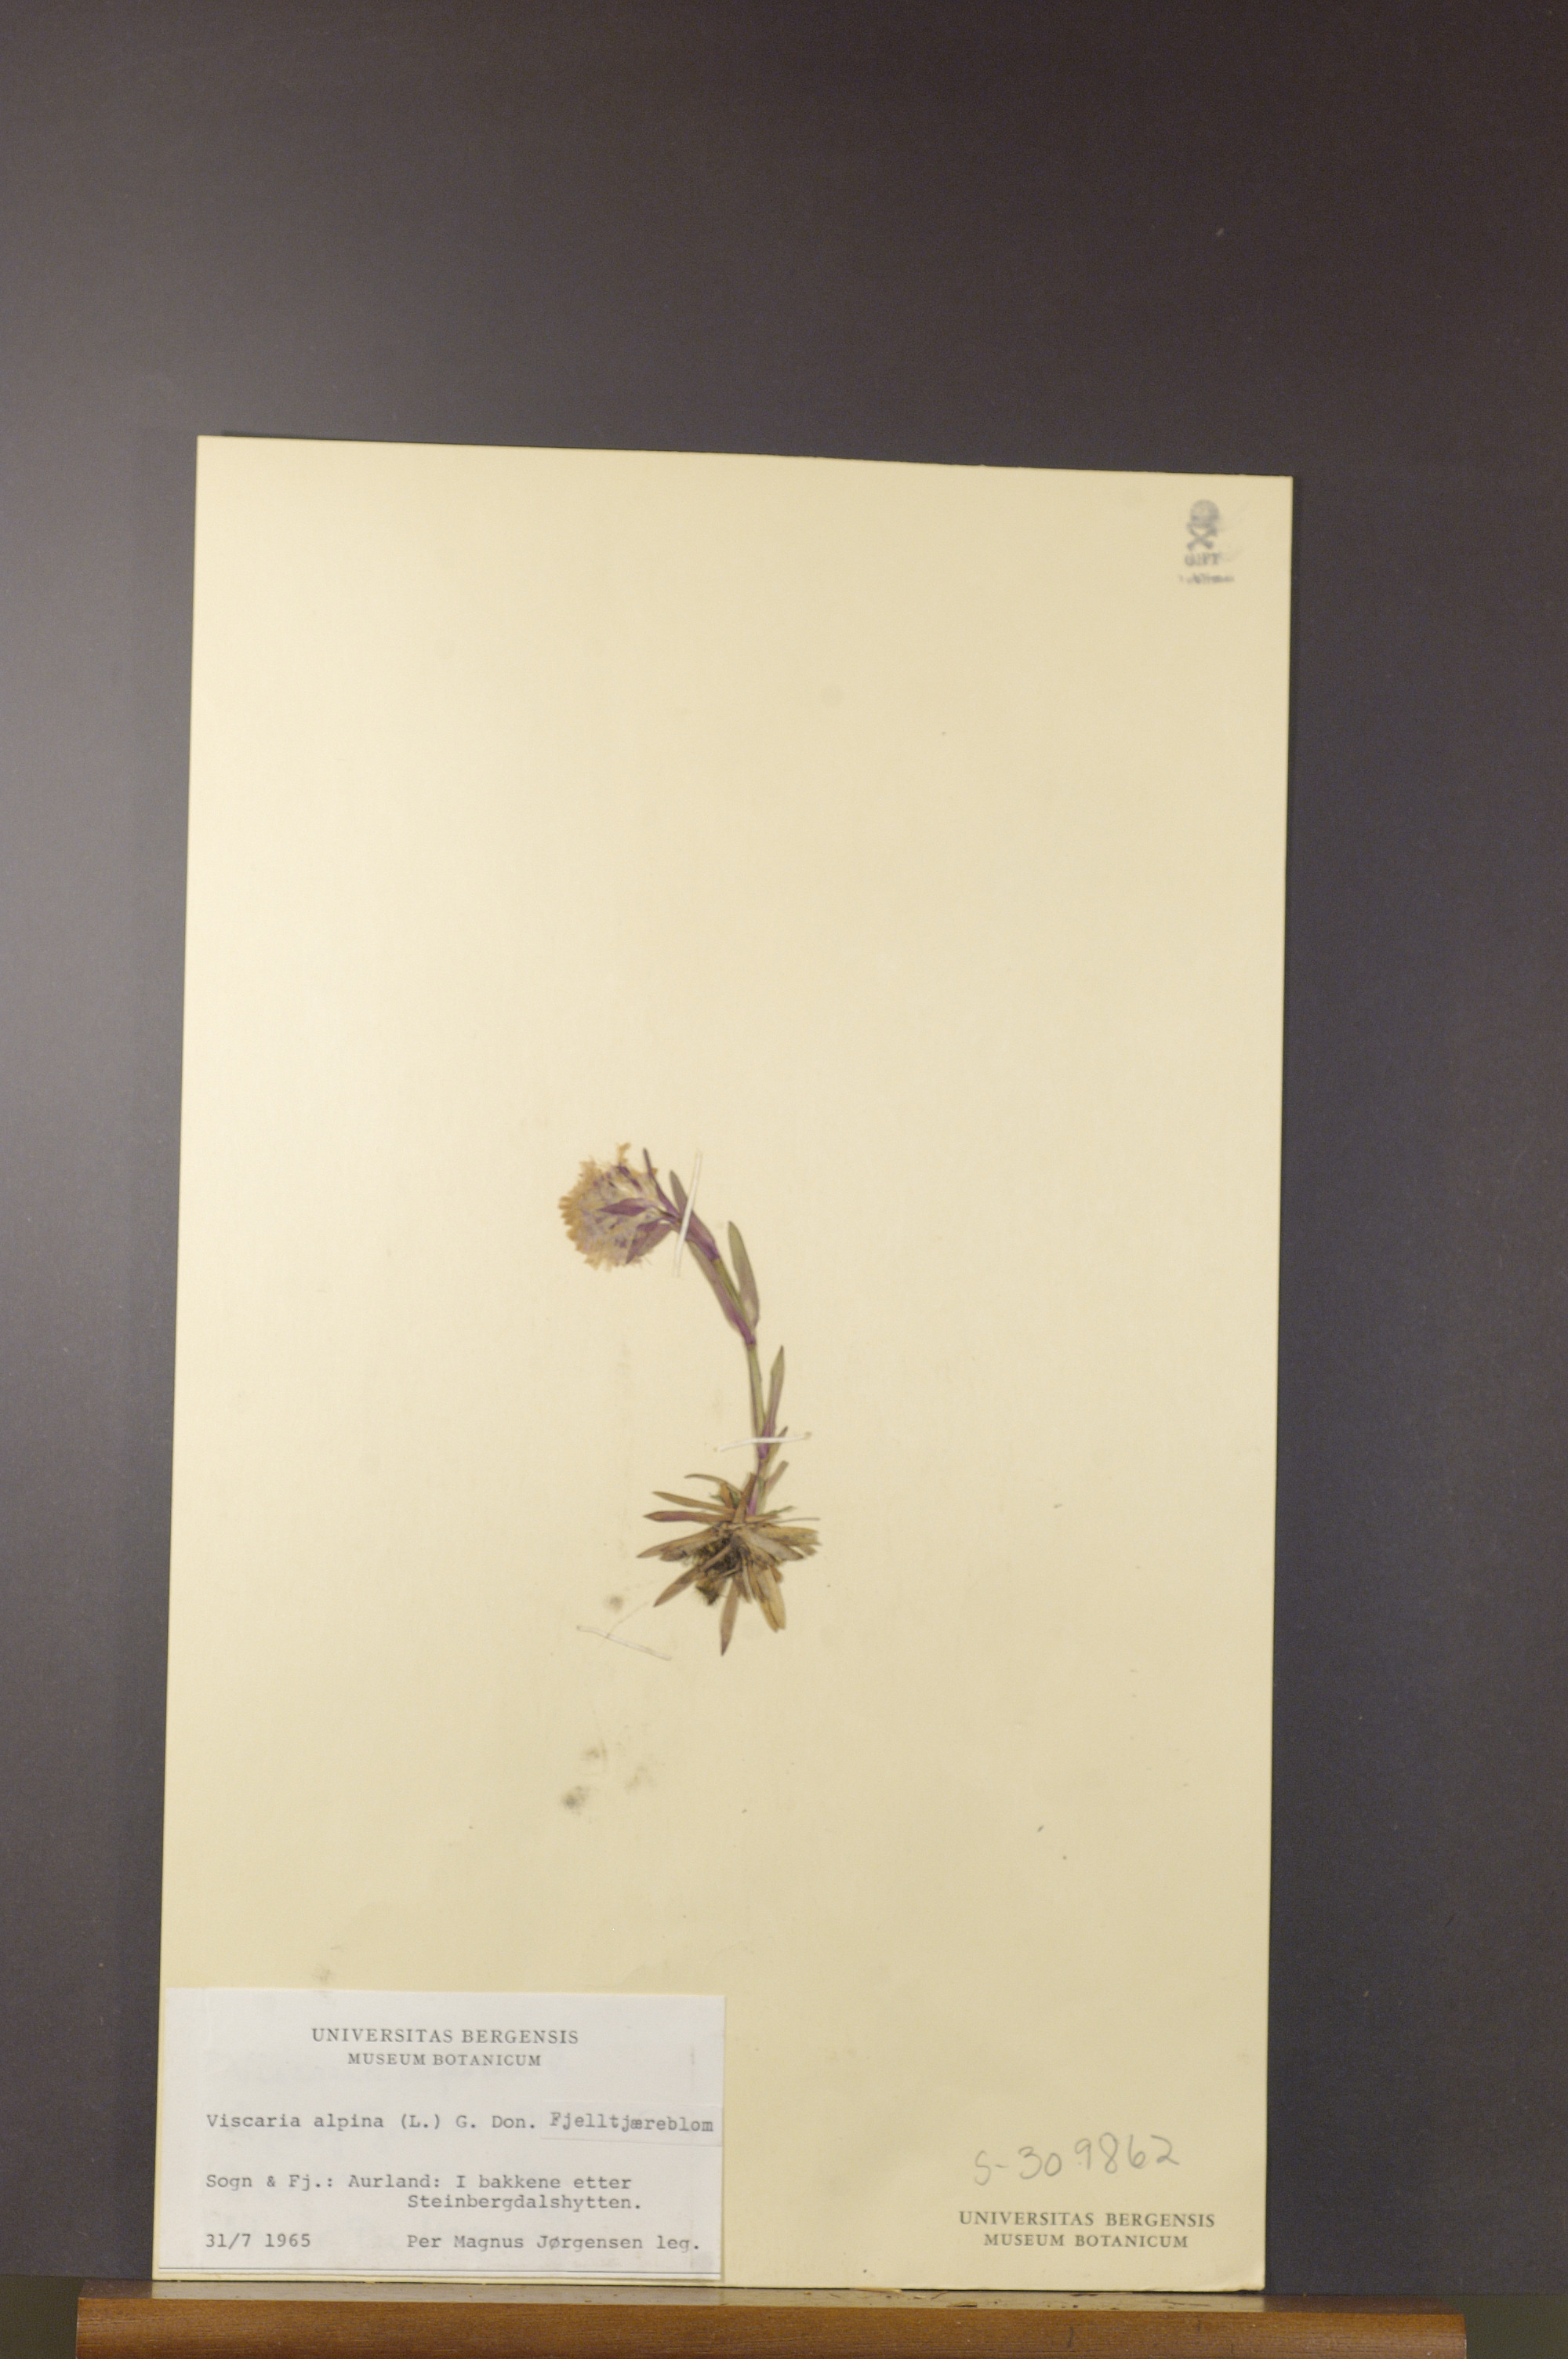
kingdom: Plantae
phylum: Tracheophyta
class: Magnoliopsida
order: Caryophyllales
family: Caryophyllaceae
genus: Viscaria
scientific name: Viscaria alpina
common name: Alpine campion
